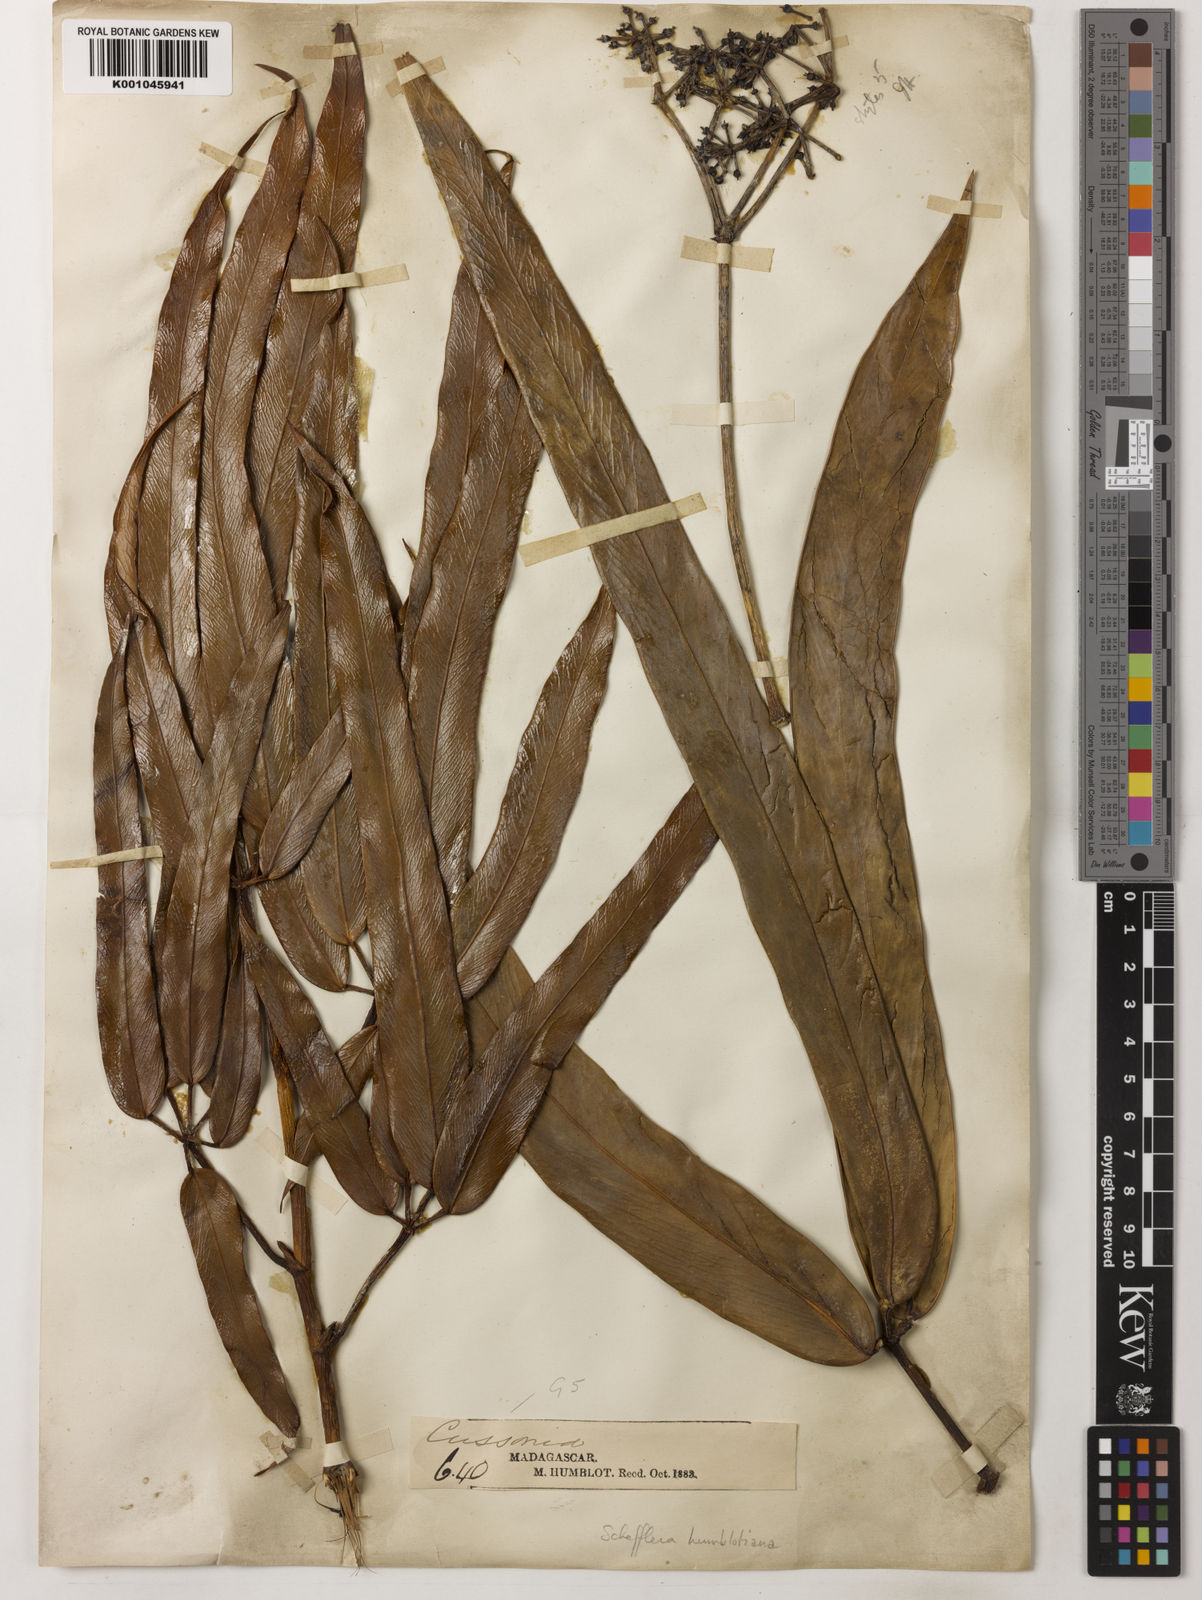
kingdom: Plantae
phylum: Tracheophyta
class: Magnoliopsida
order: Apiales
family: Araliaceae
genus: Astropanax
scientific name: Astropanax humblotianus
